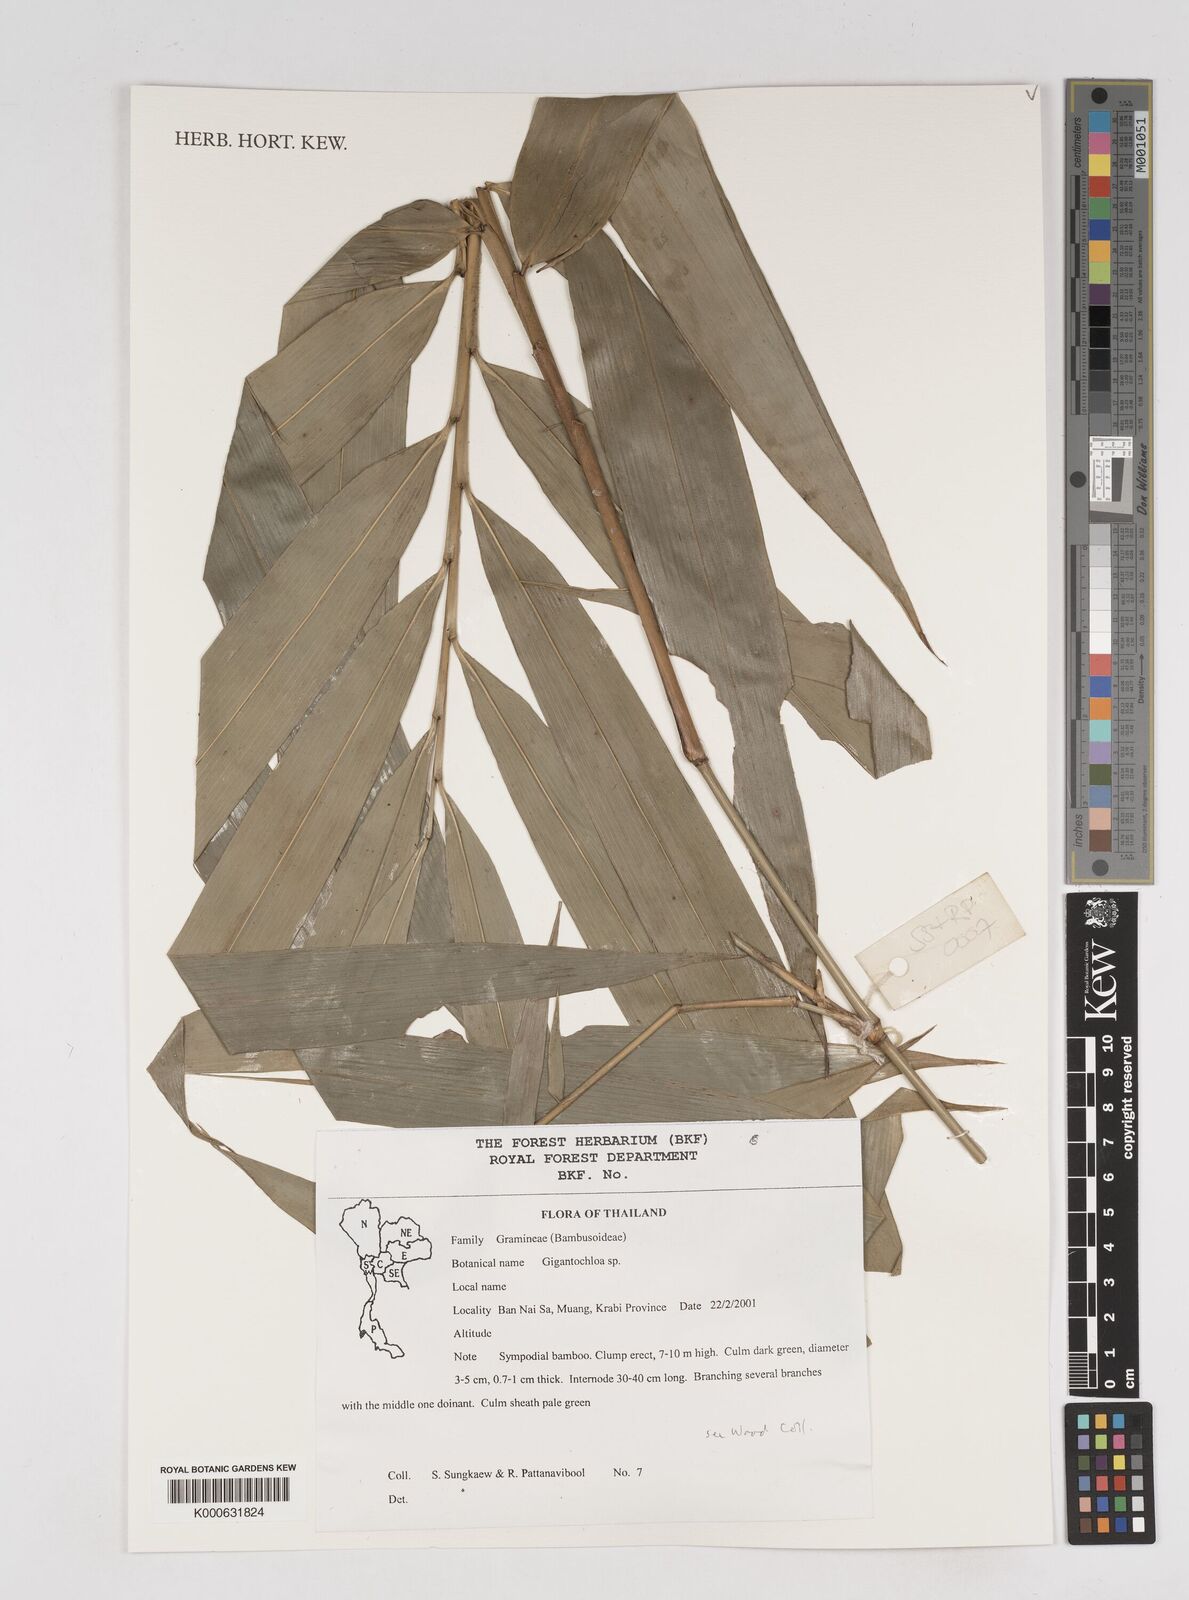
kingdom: Plantae
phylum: Tracheophyta
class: Liliopsida
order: Poales
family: Poaceae
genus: Gigantochloa
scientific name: Gigantochloa
